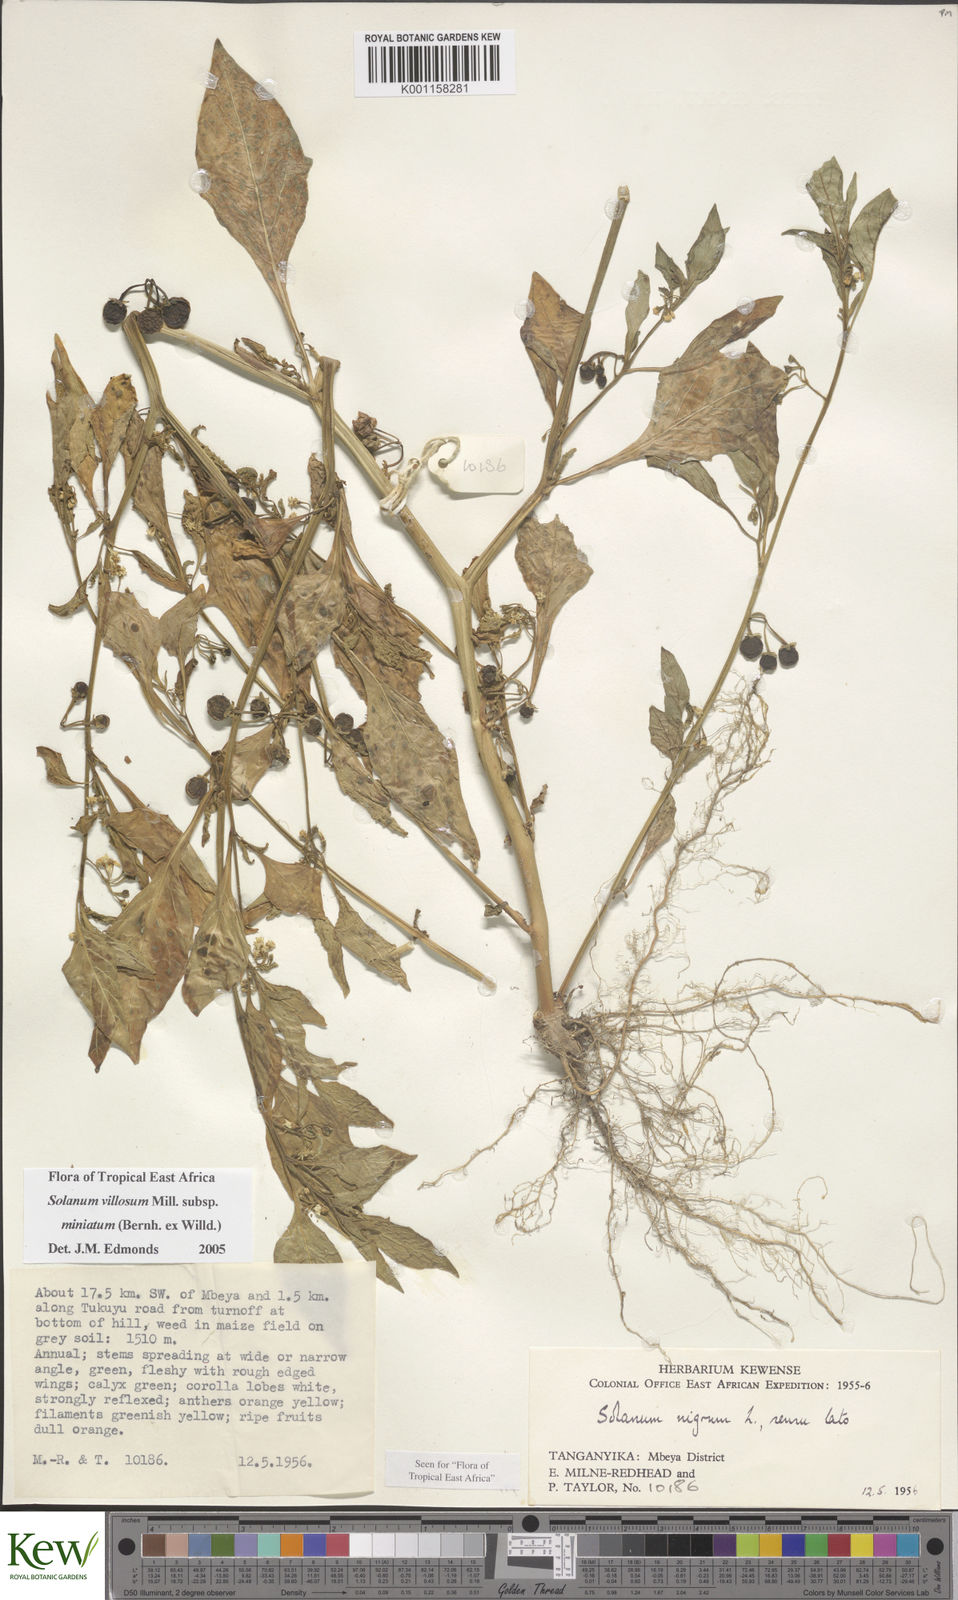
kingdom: Plantae
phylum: Tracheophyta
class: Magnoliopsida
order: Solanales
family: Solanaceae
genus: Solanum
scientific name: Solanum villosum
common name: Red nightshade
